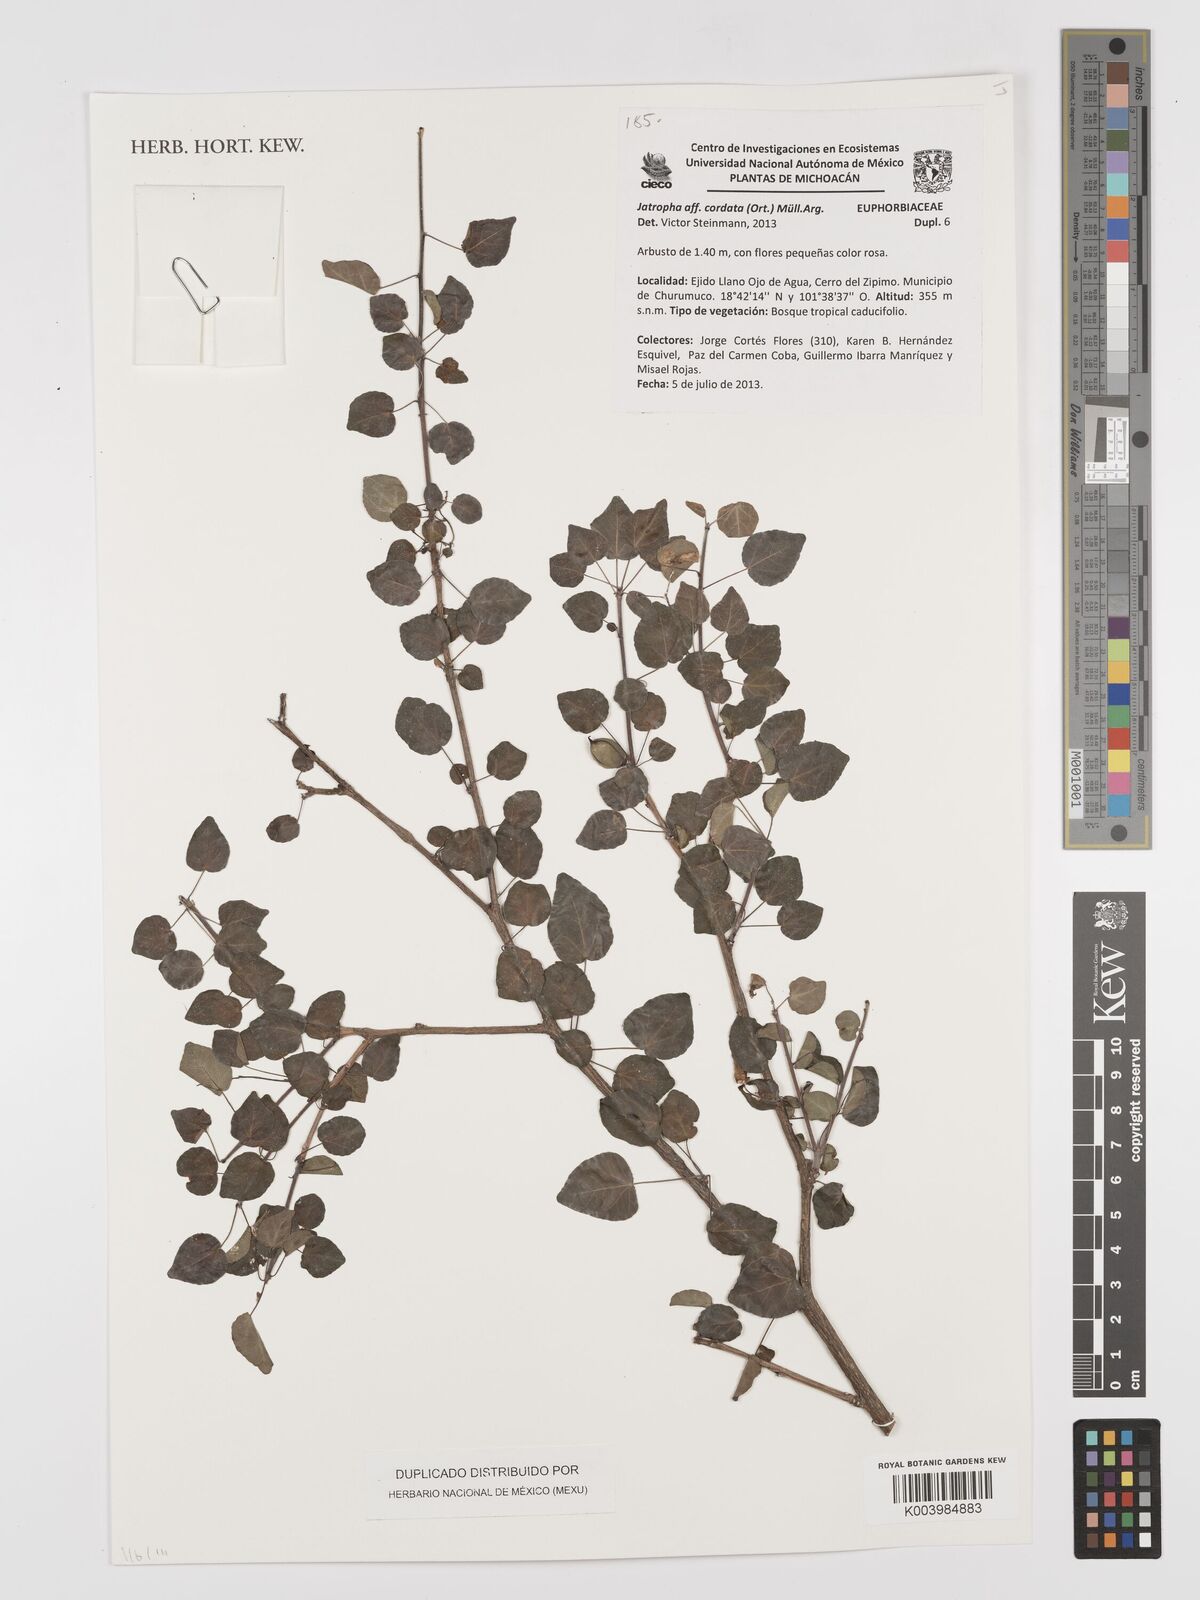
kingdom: Plantae
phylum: Tracheophyta
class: Magnoliopsida
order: Malpighiales
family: Euphorbiaceae
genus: Jatropha
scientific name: Jatropha cordata
